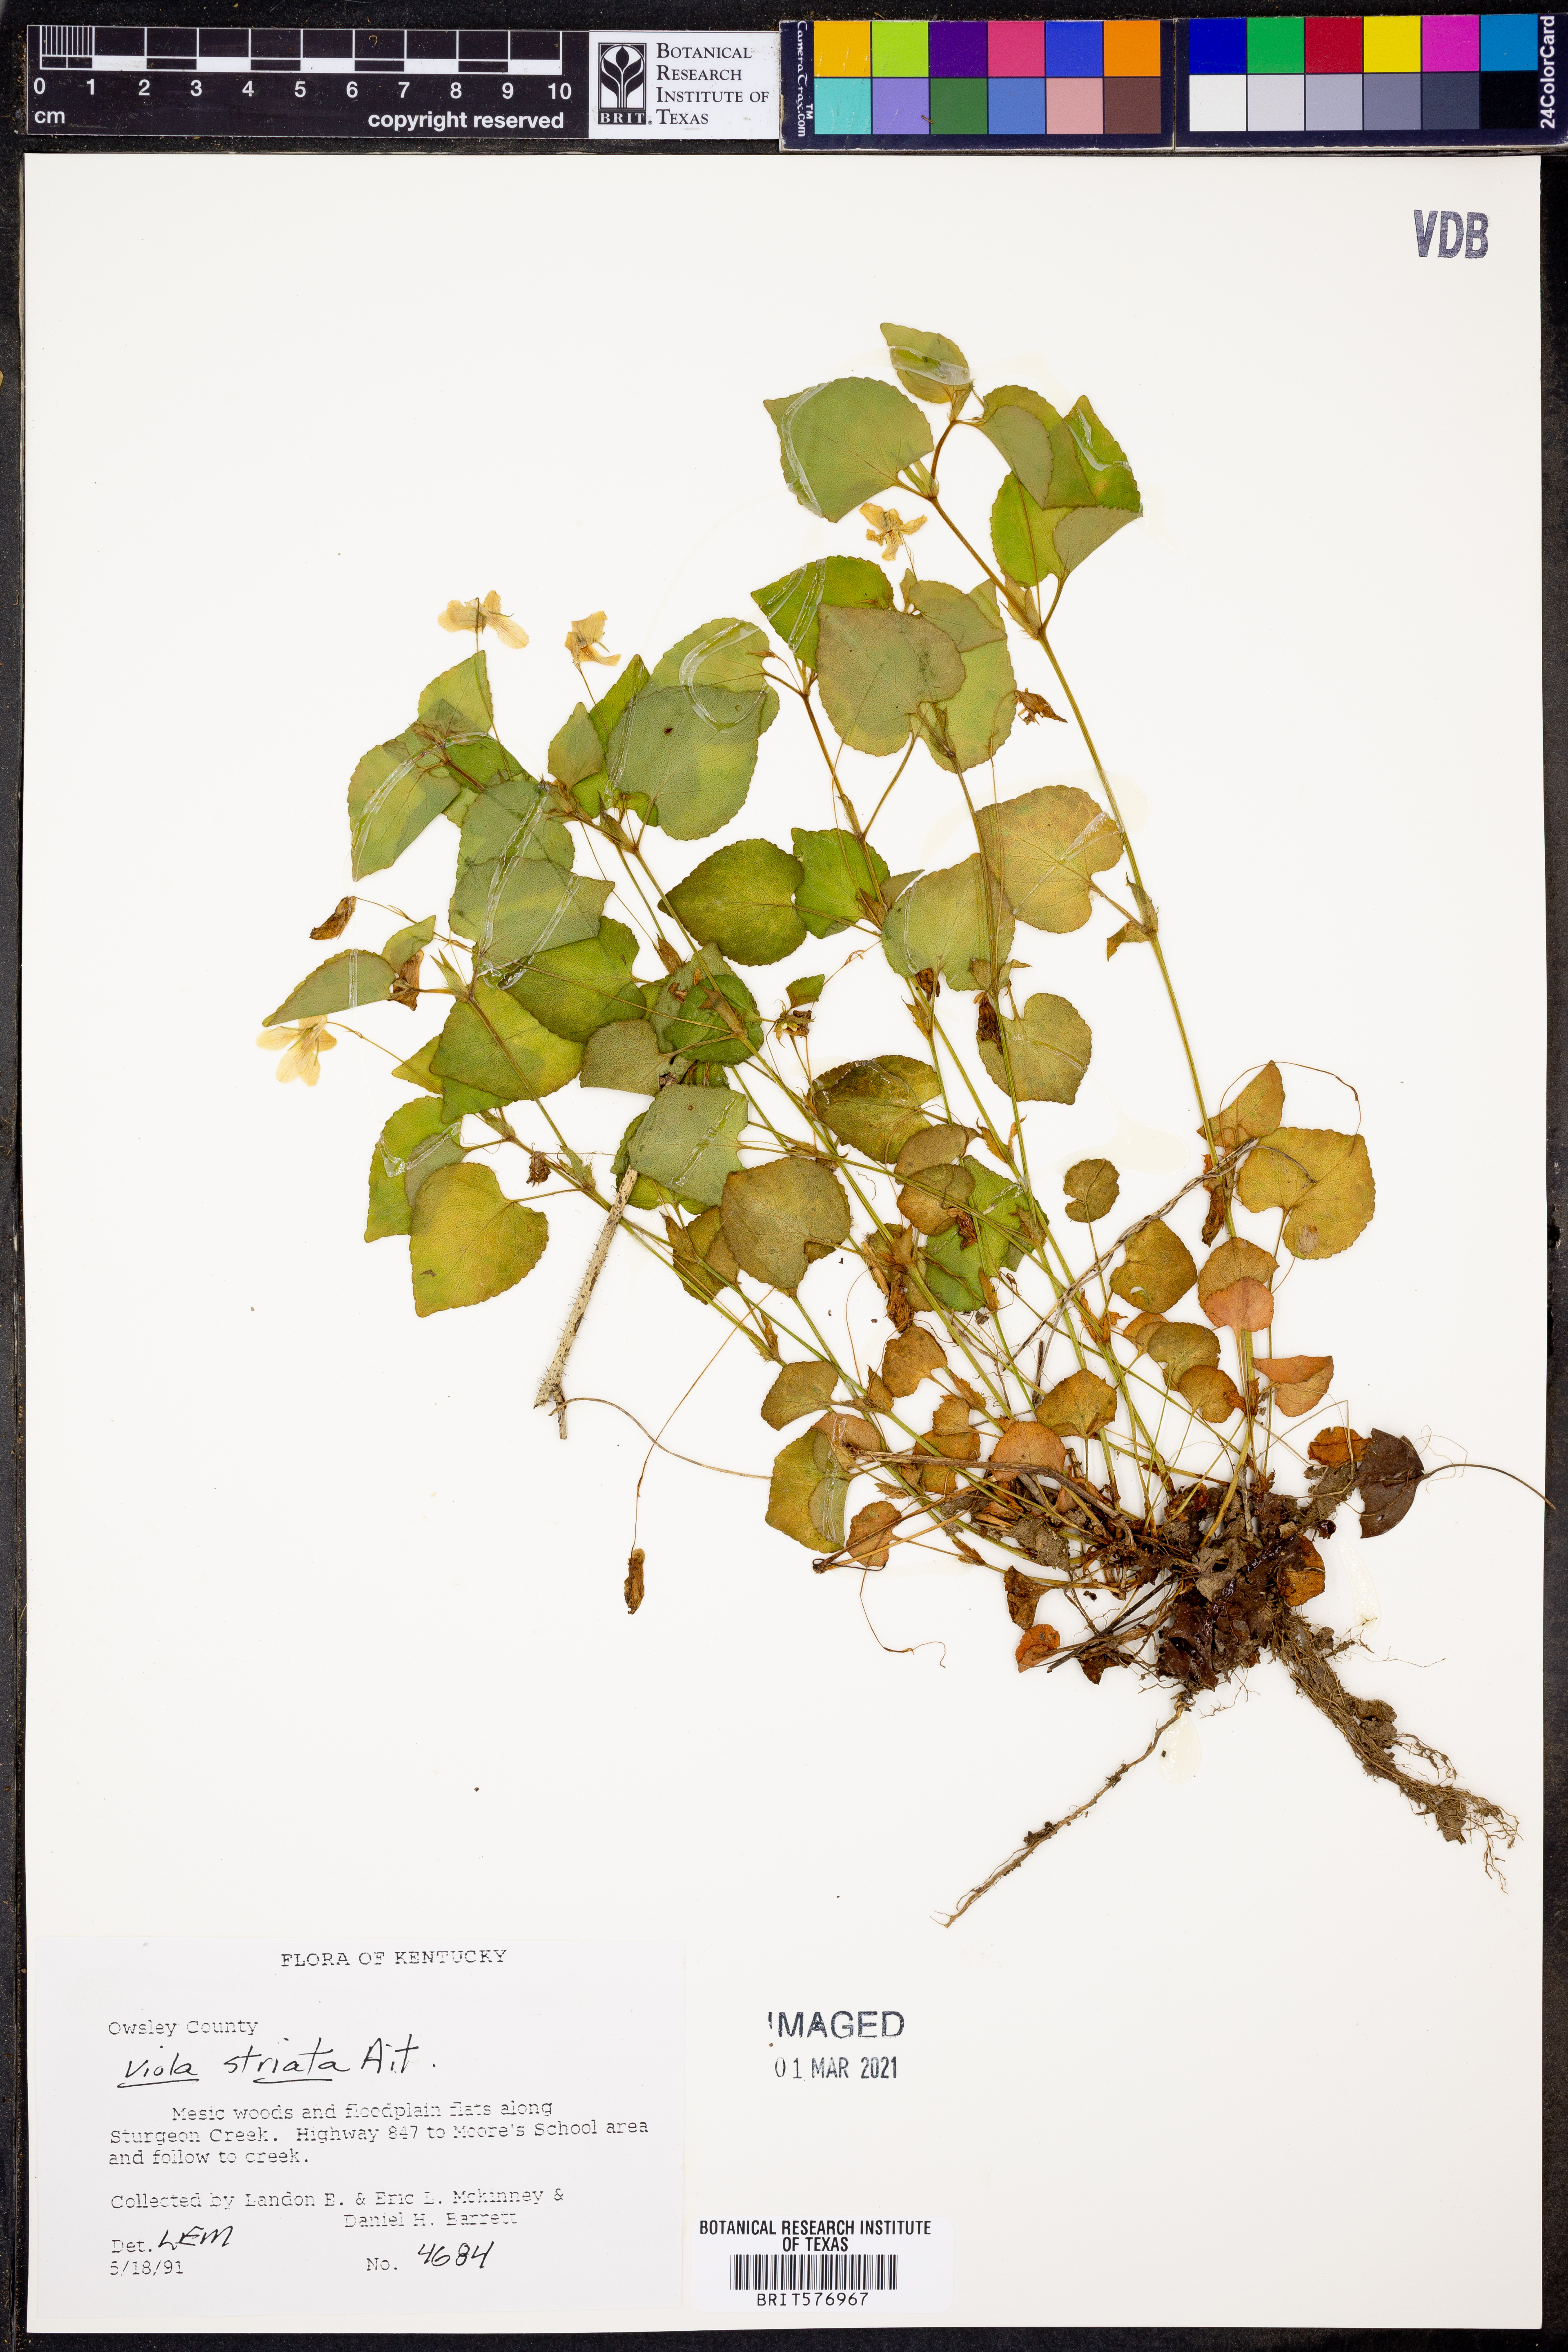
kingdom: Plantae
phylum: Tracheophyta
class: Magnoliopsida
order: Malpighiales
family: Violaceae
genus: Viola
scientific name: Viola striata
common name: Cream violet
